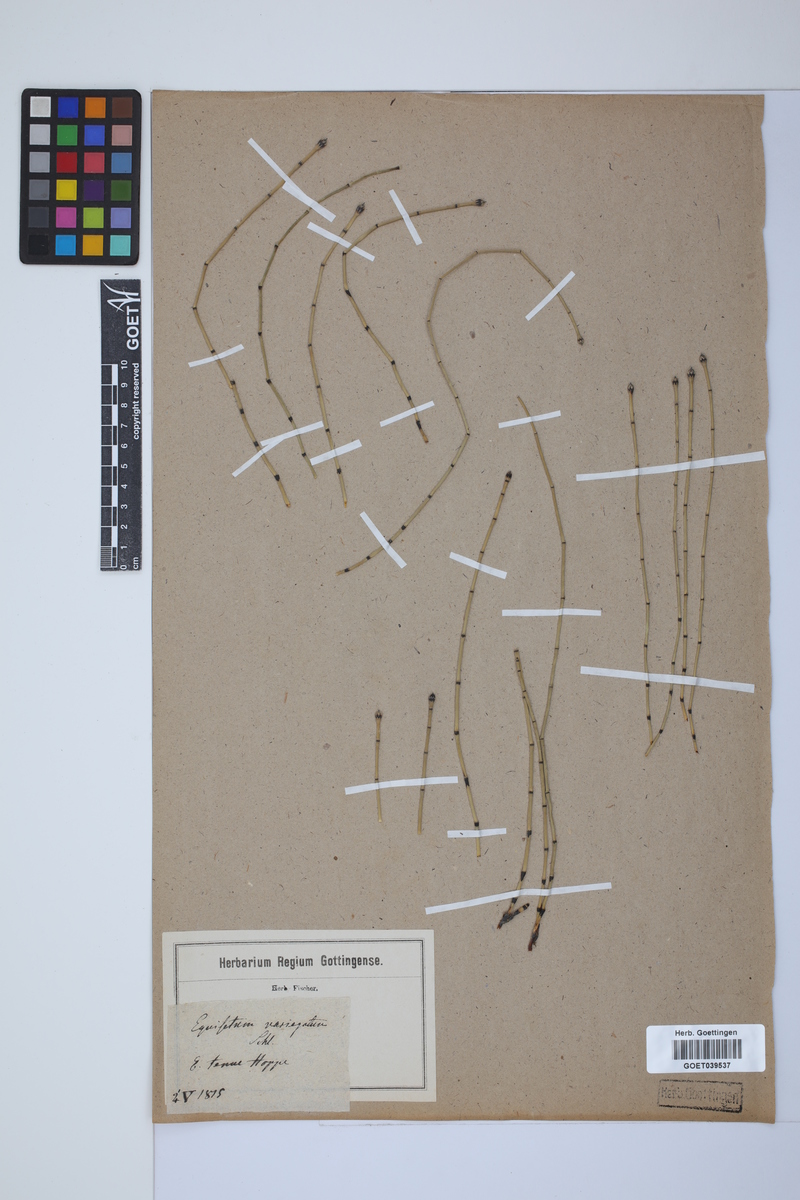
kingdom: Plantae
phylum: Tracheophyta
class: Polypodiopsida
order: Equisetales
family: Equisetaceae
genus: Equisetum
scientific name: Equisetum variegatum
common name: Variegated horsetail
